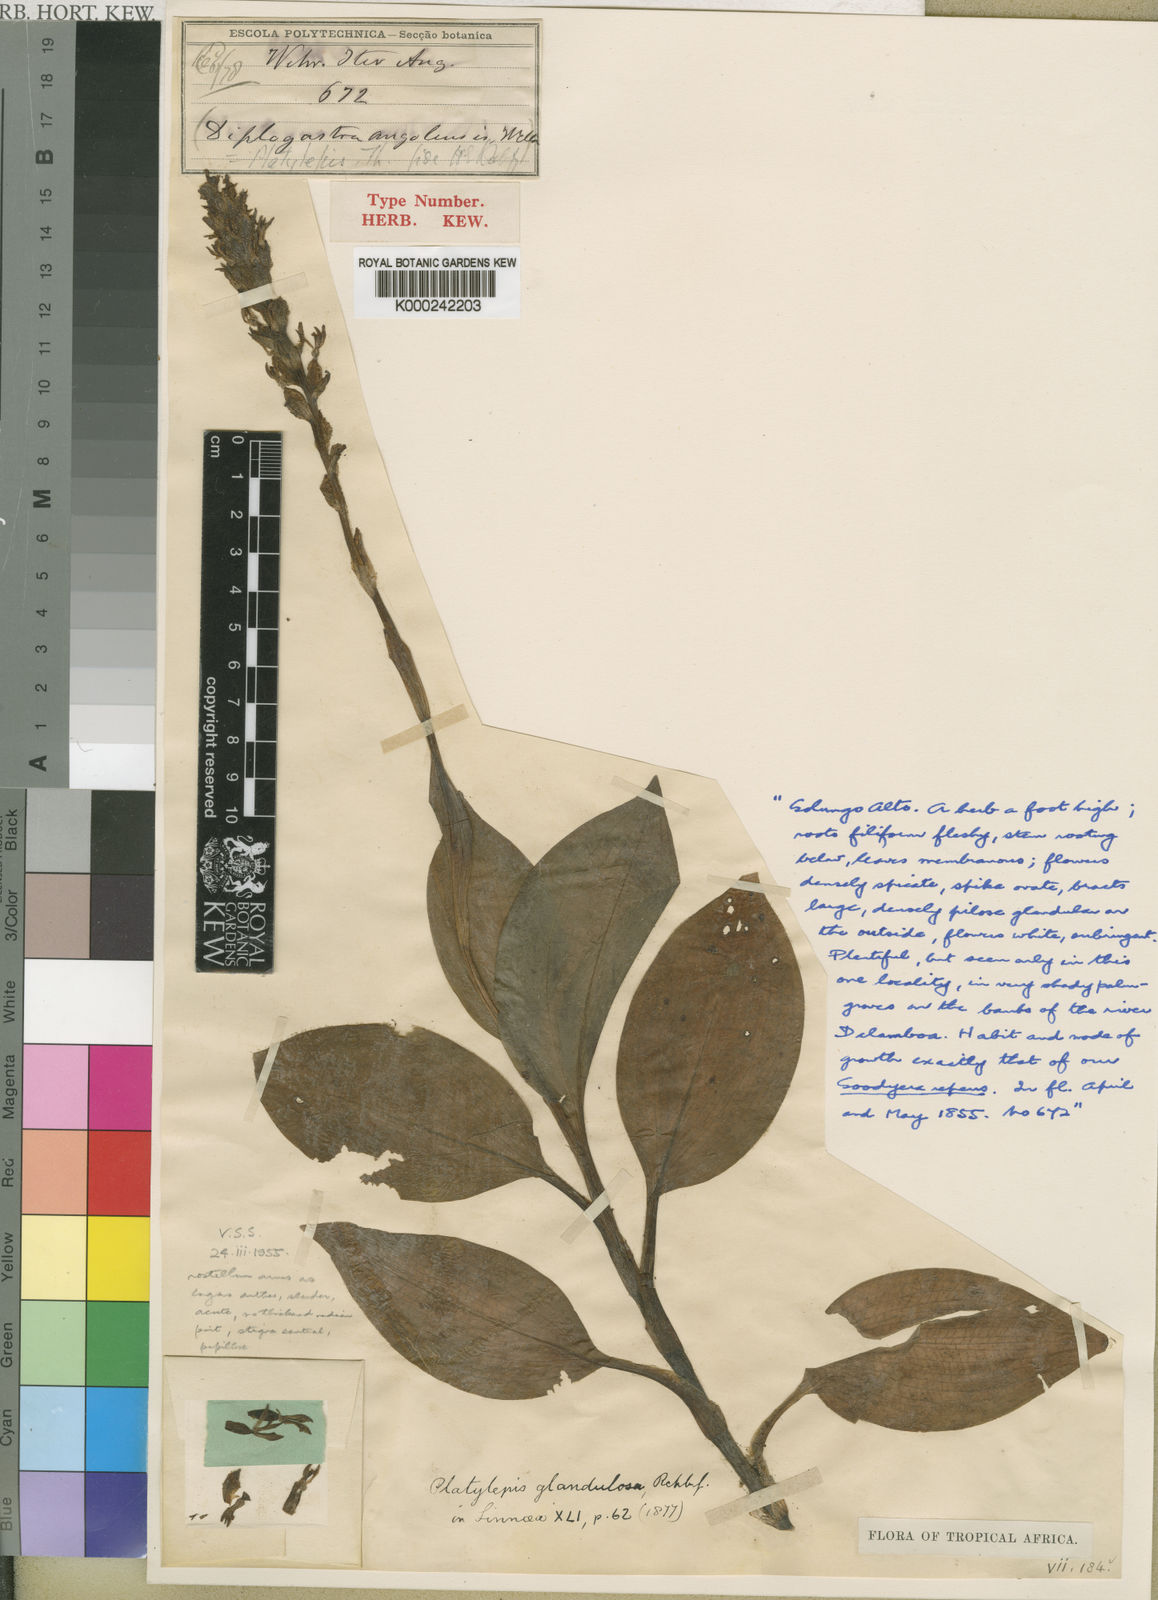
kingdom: Plantae
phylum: Tracheophyta
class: Liliopsida
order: Asparagales
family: Orchidaceae
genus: Platylepis
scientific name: Platylepis glandulosa
